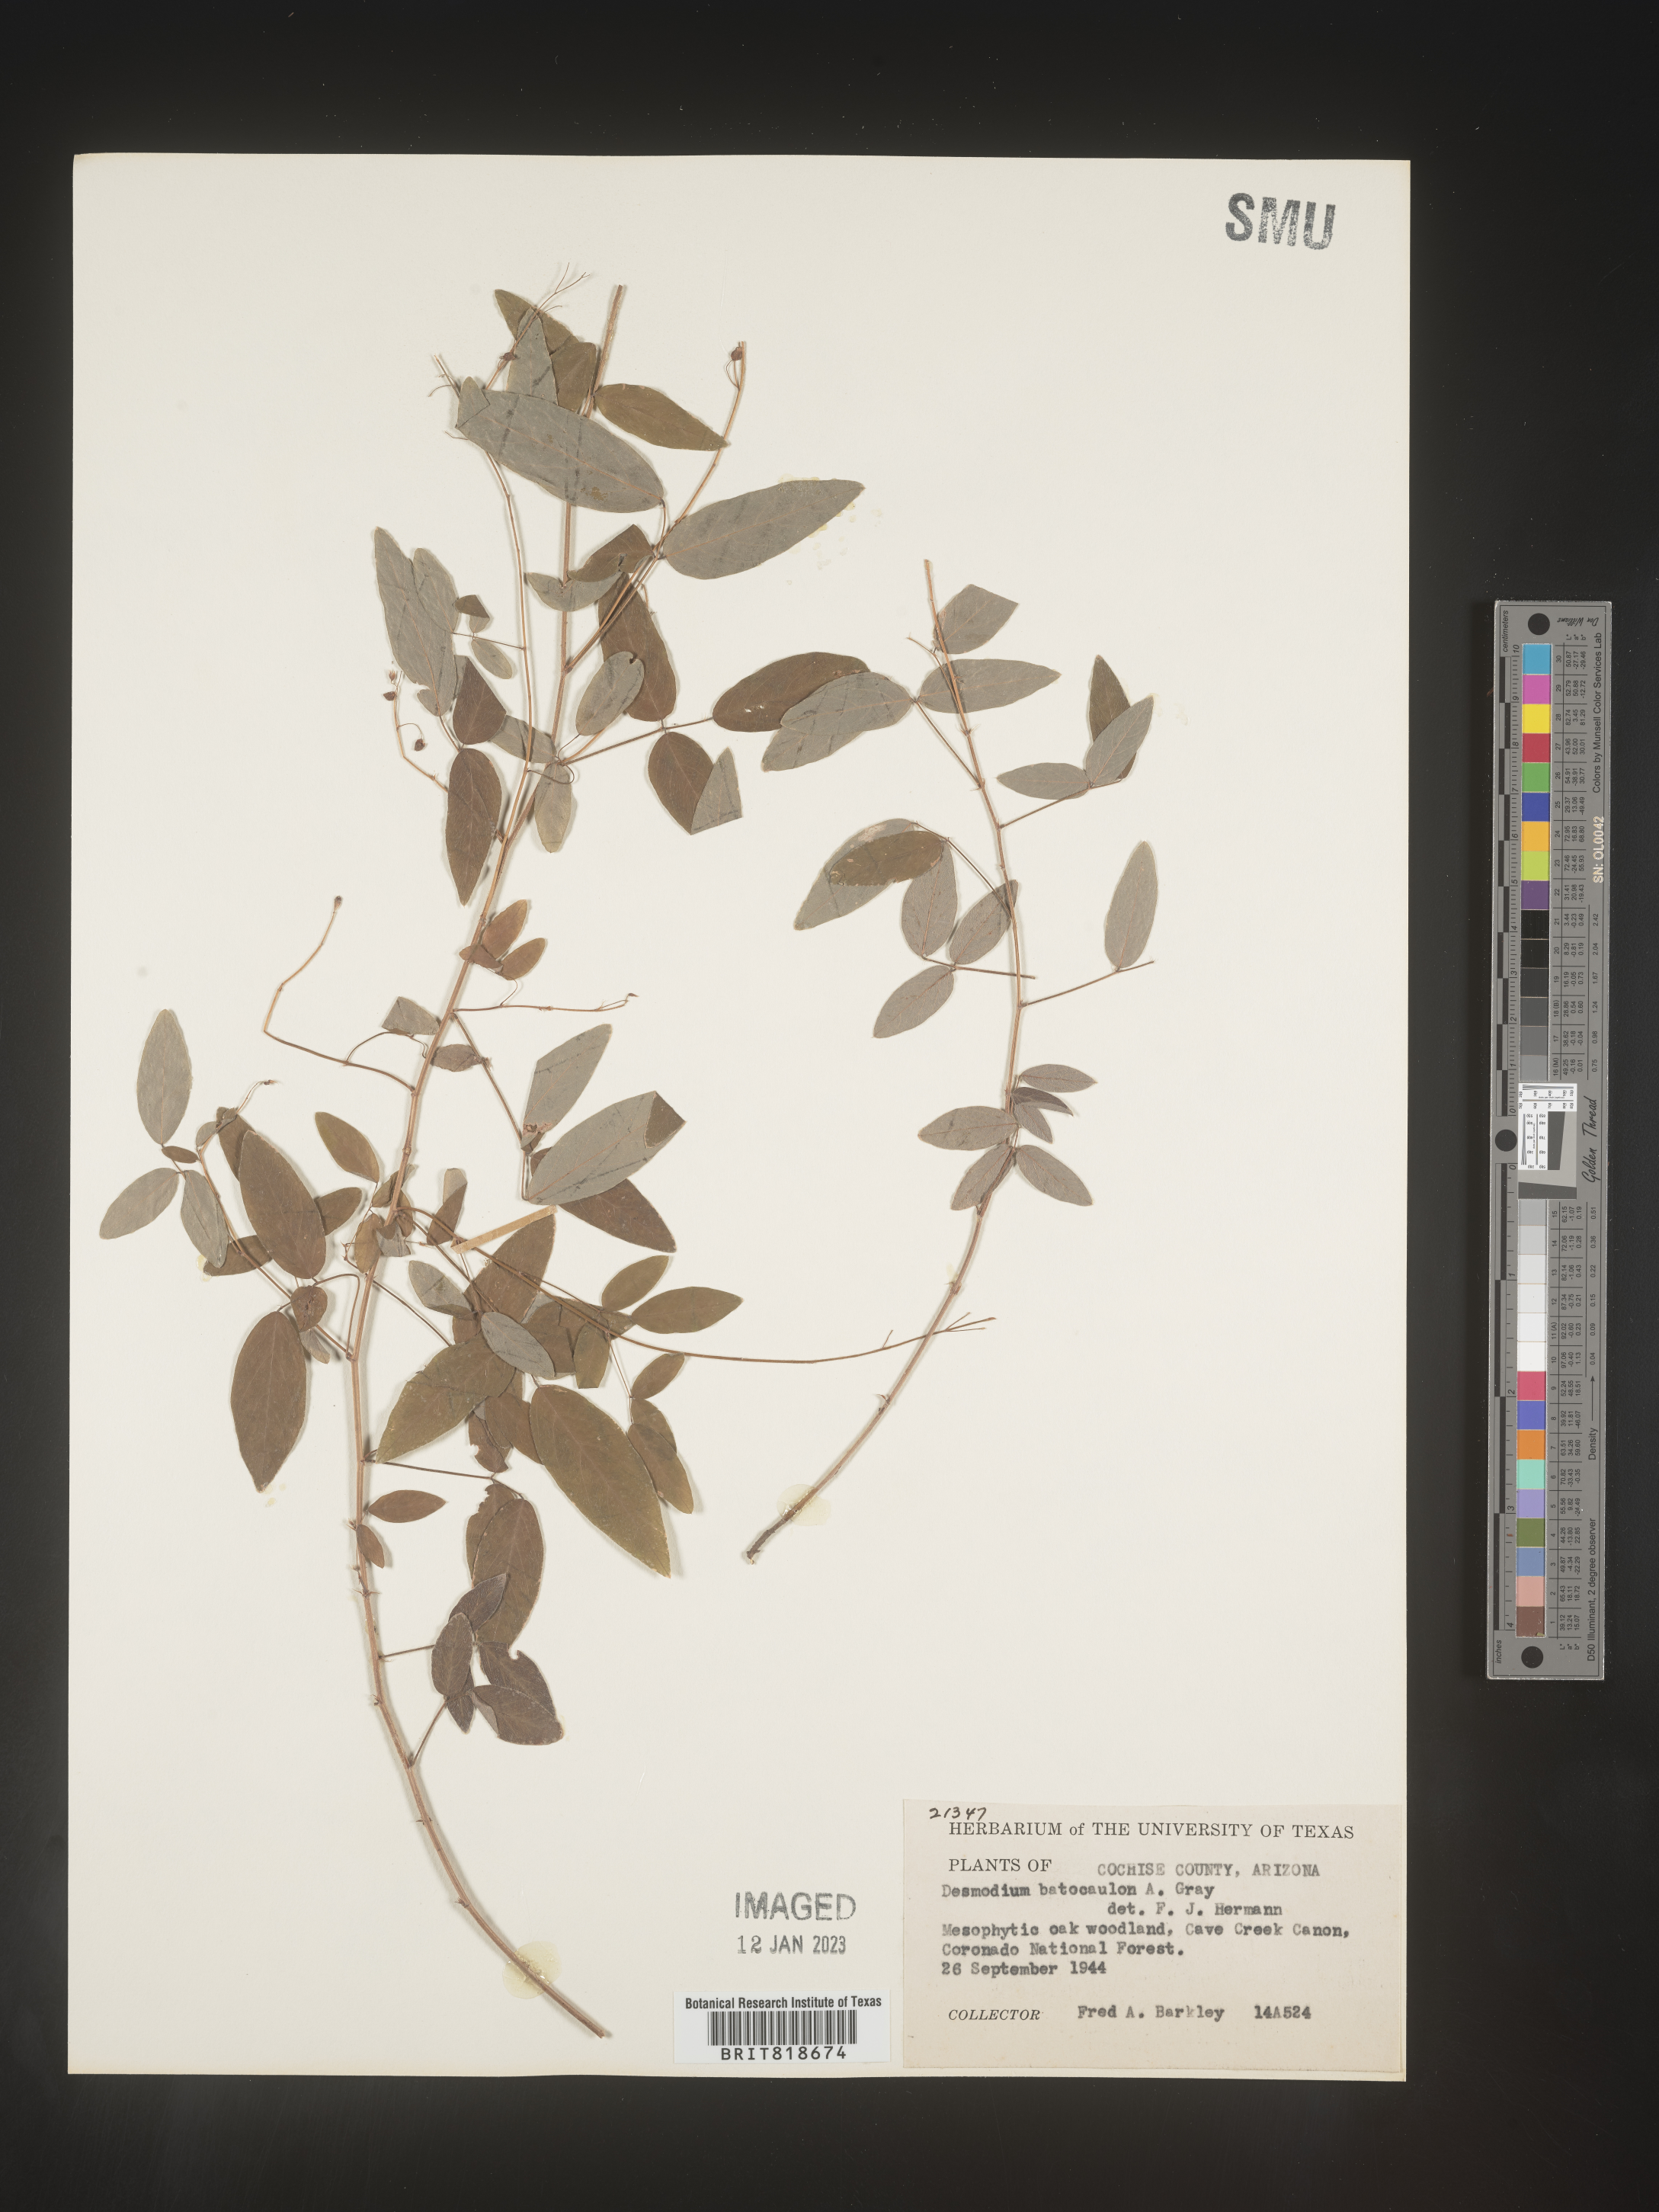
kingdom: Plantae
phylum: Tracheophyta
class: Magnoliopsida
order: Fabales
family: Fabaceae
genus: Desmodium
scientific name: Desmodium
